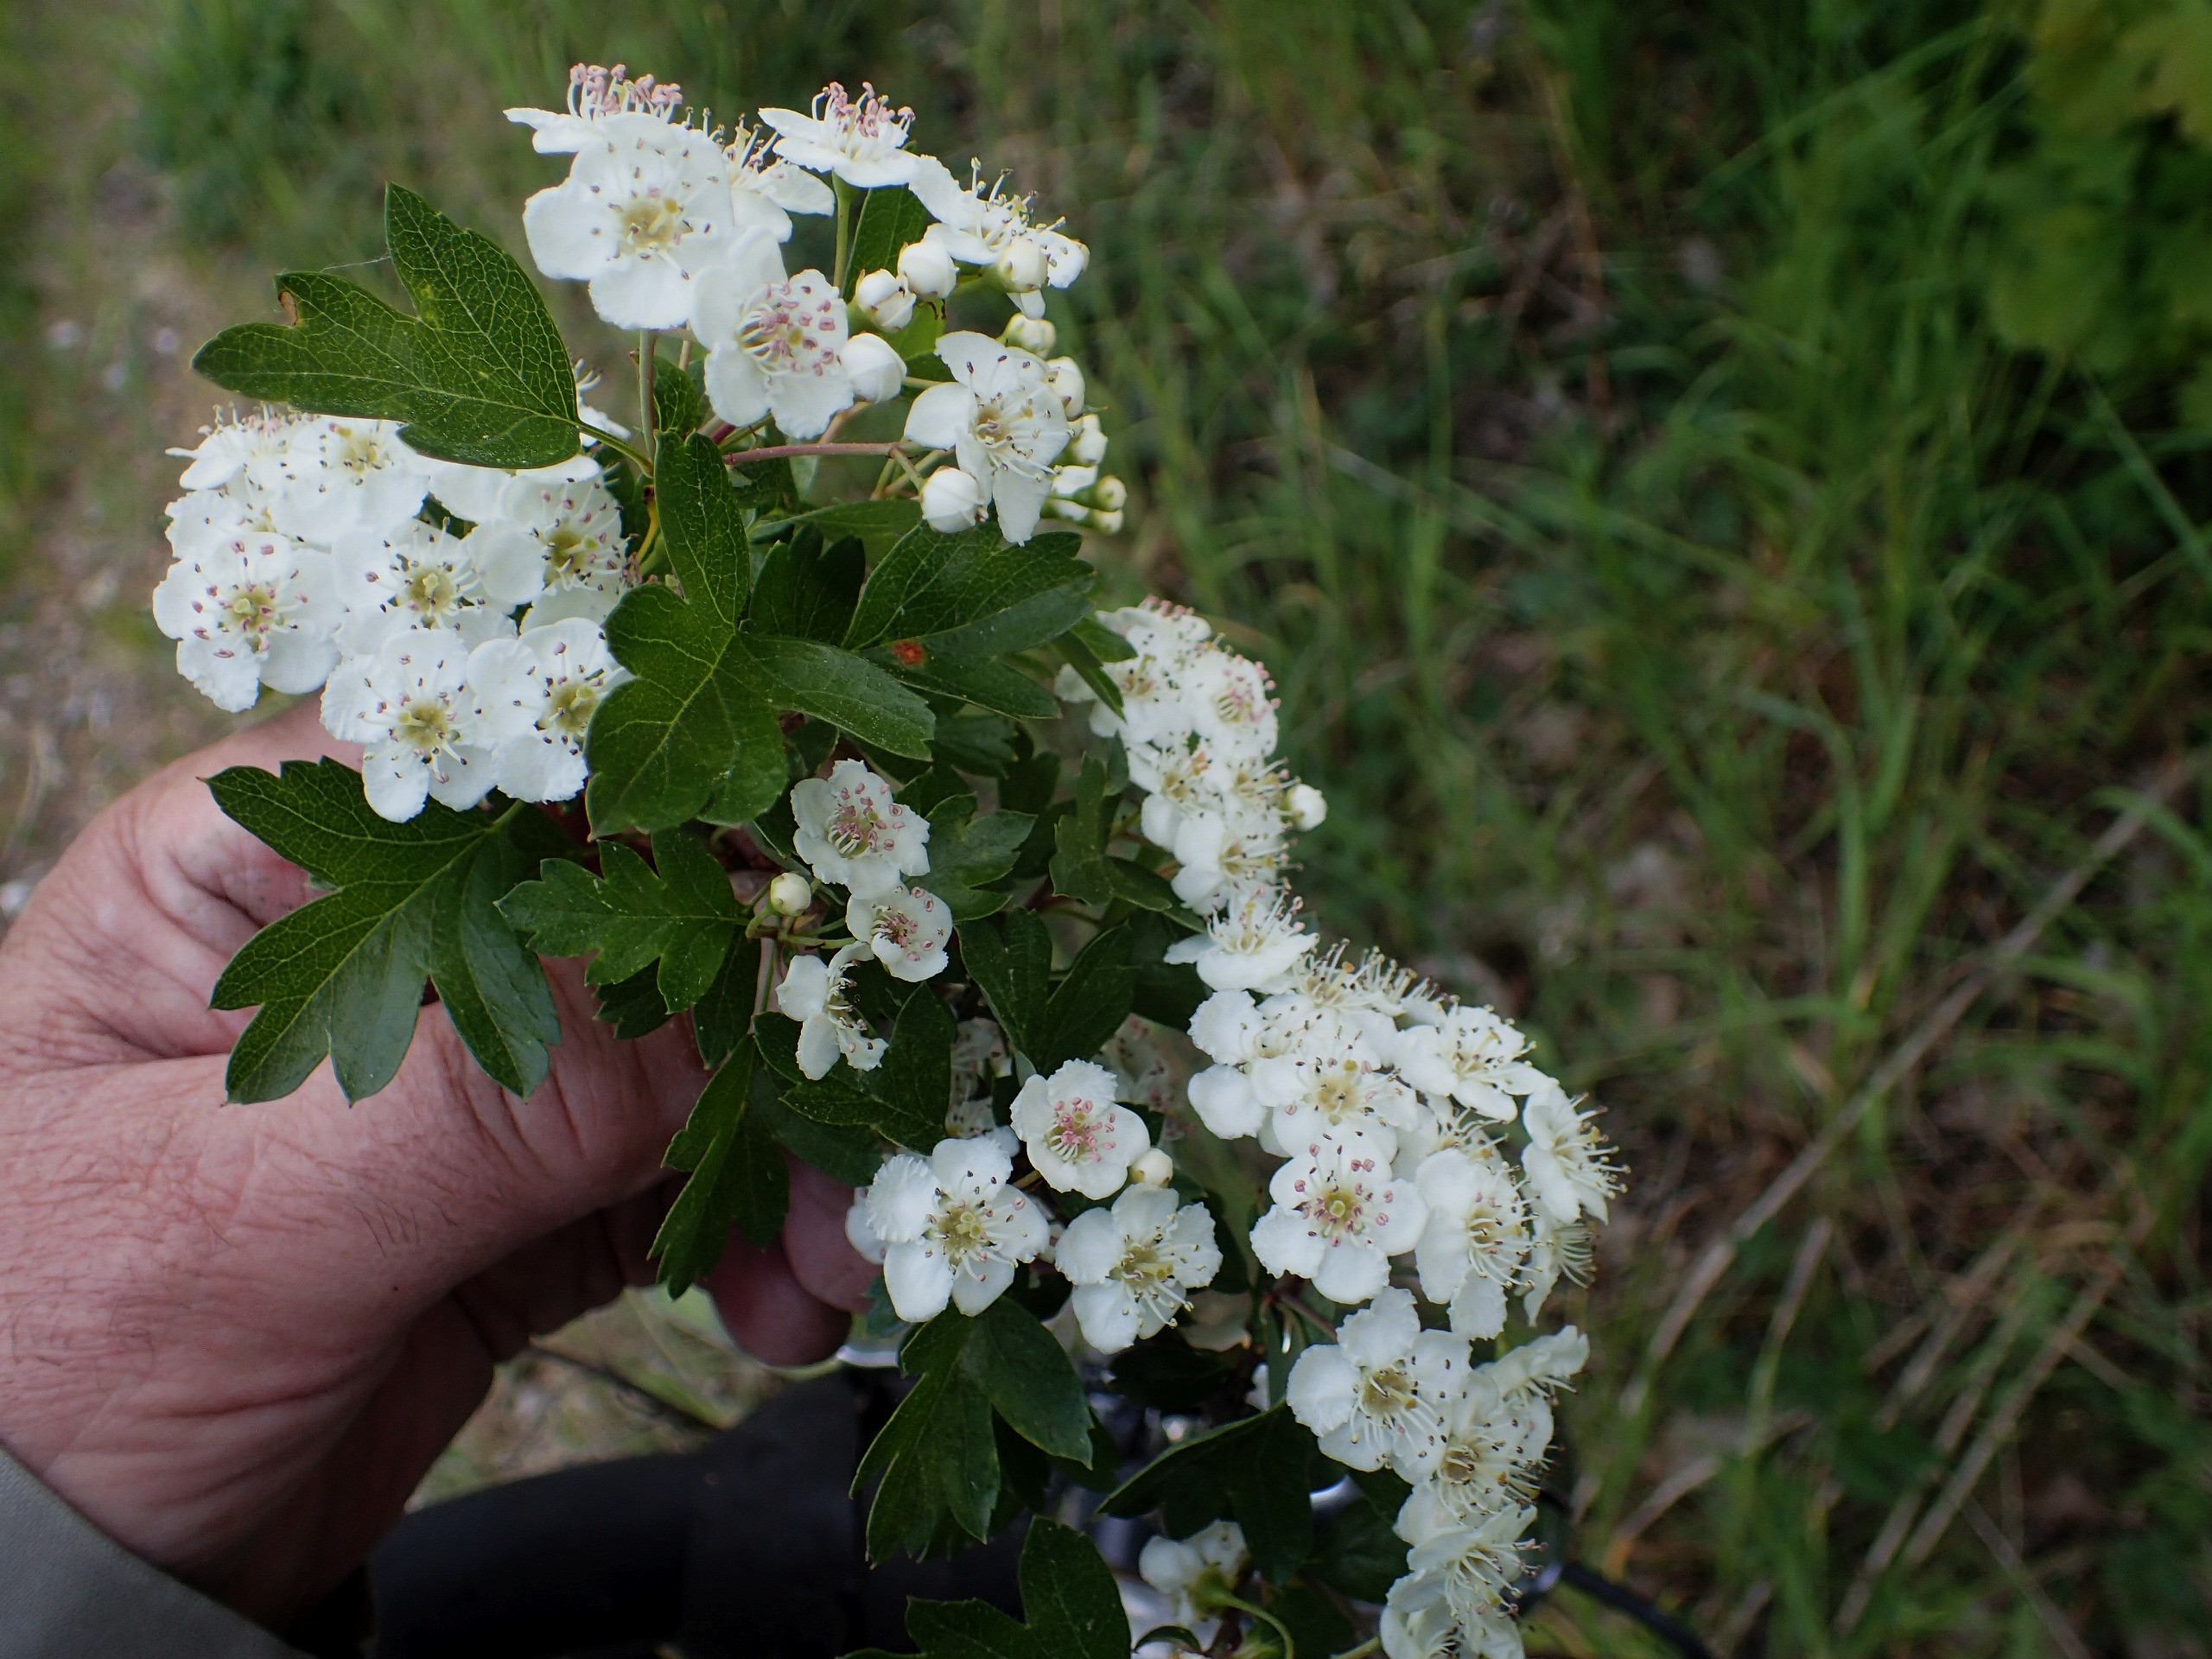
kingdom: Plantae
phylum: Tracheophyta
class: Magnoliopsida
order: Rosales
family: Rosaceae
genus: Crataegus
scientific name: Crataegus monogyna
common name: Engriflet hvidtjørn
